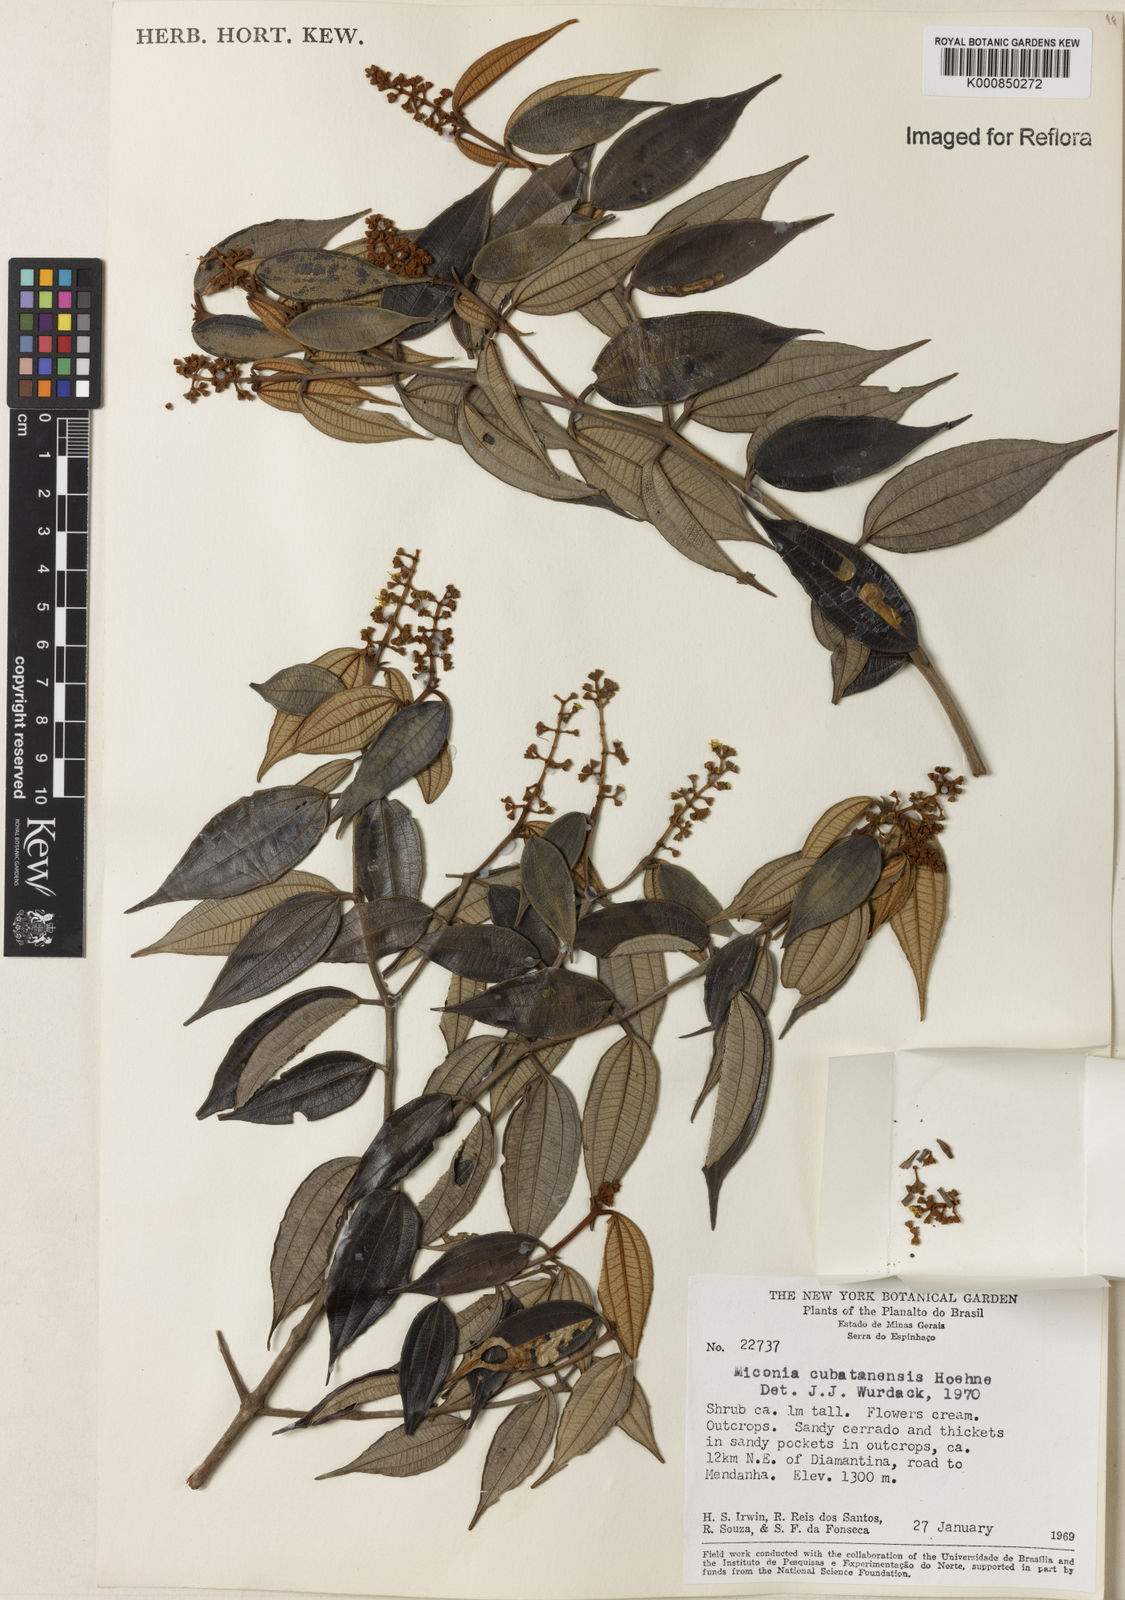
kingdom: Plantae
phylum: Tracheophyta
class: Magnoliopsida
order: Myrtales
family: Melastomataceae
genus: Miconia
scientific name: Miconia cubatanensis
